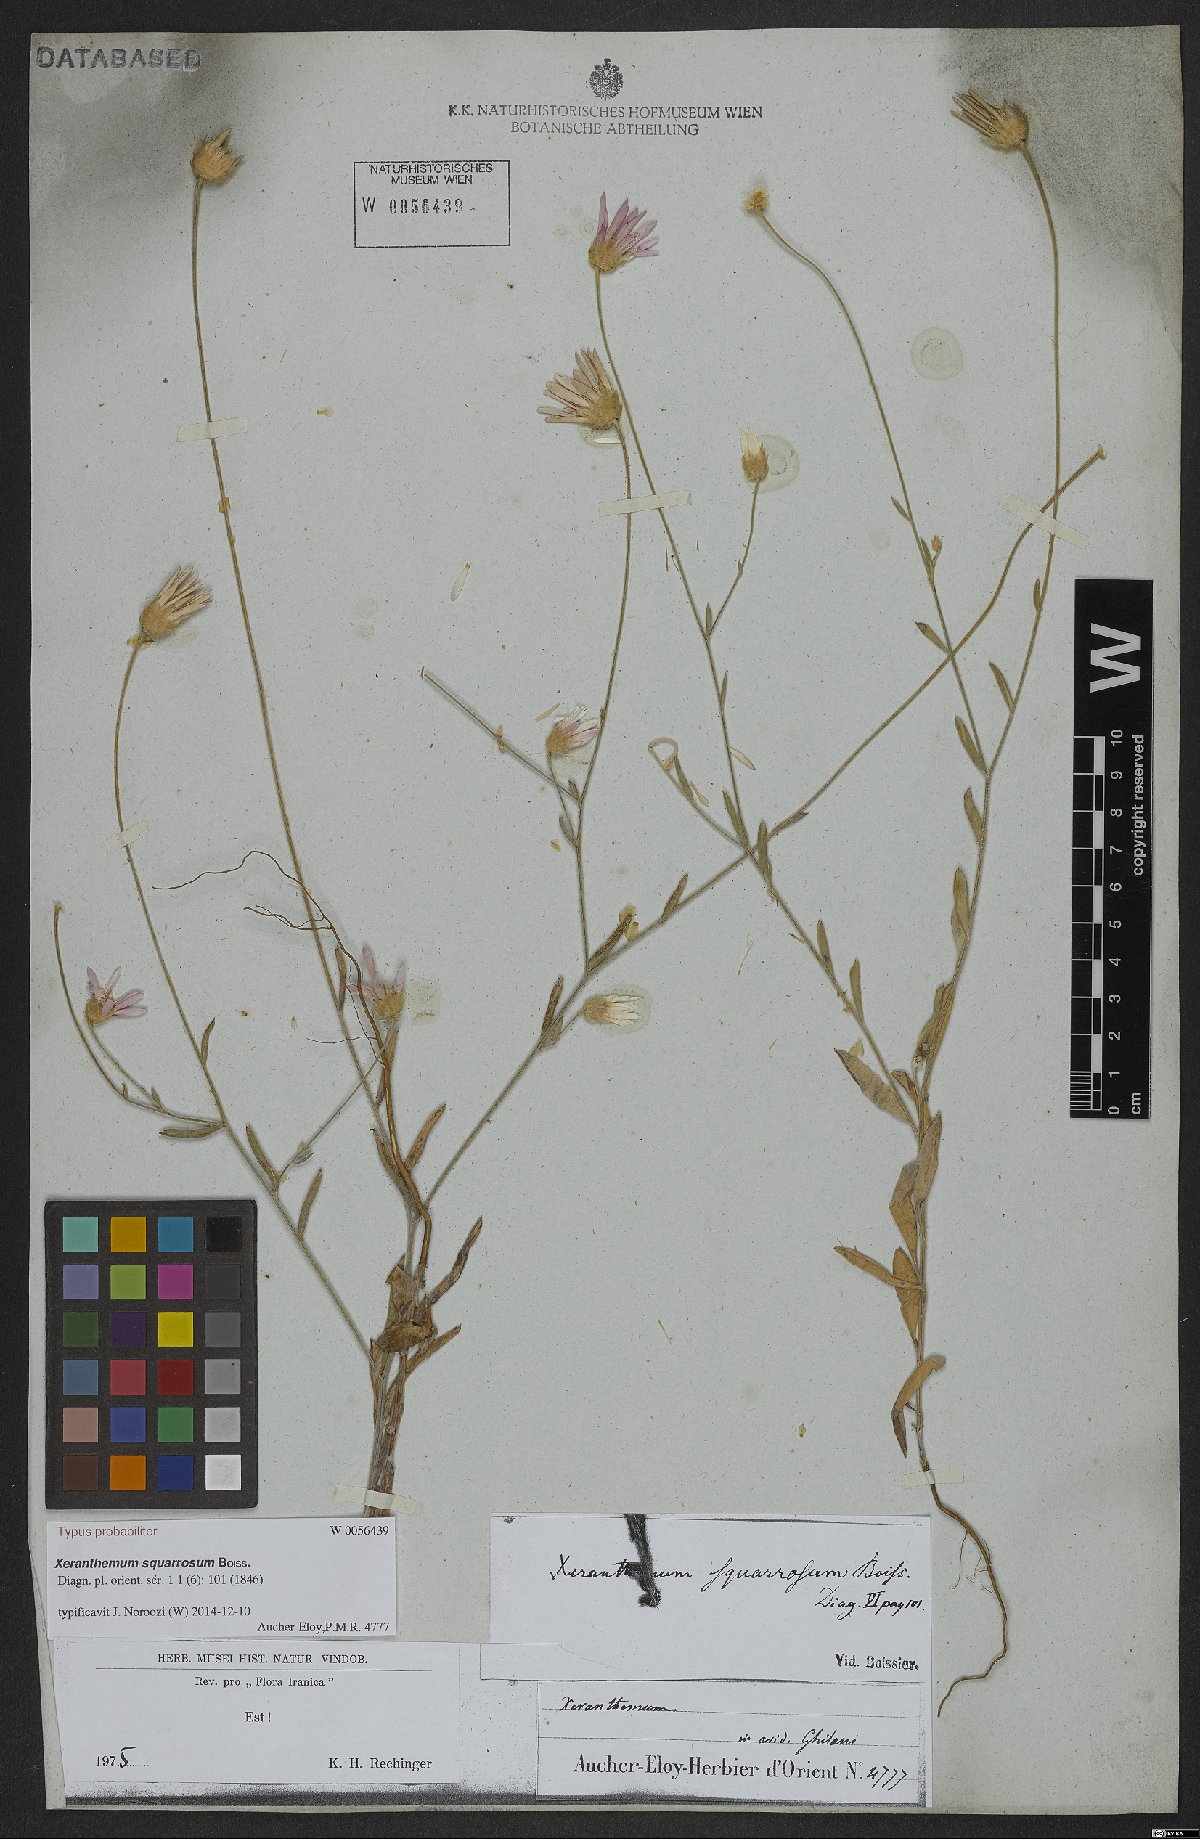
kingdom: Plantae
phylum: Tracheophyta
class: Magnoliopsida
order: Asterales
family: Asteraceae
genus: Xeranthemum
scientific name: Xeranthemum squarrosum
